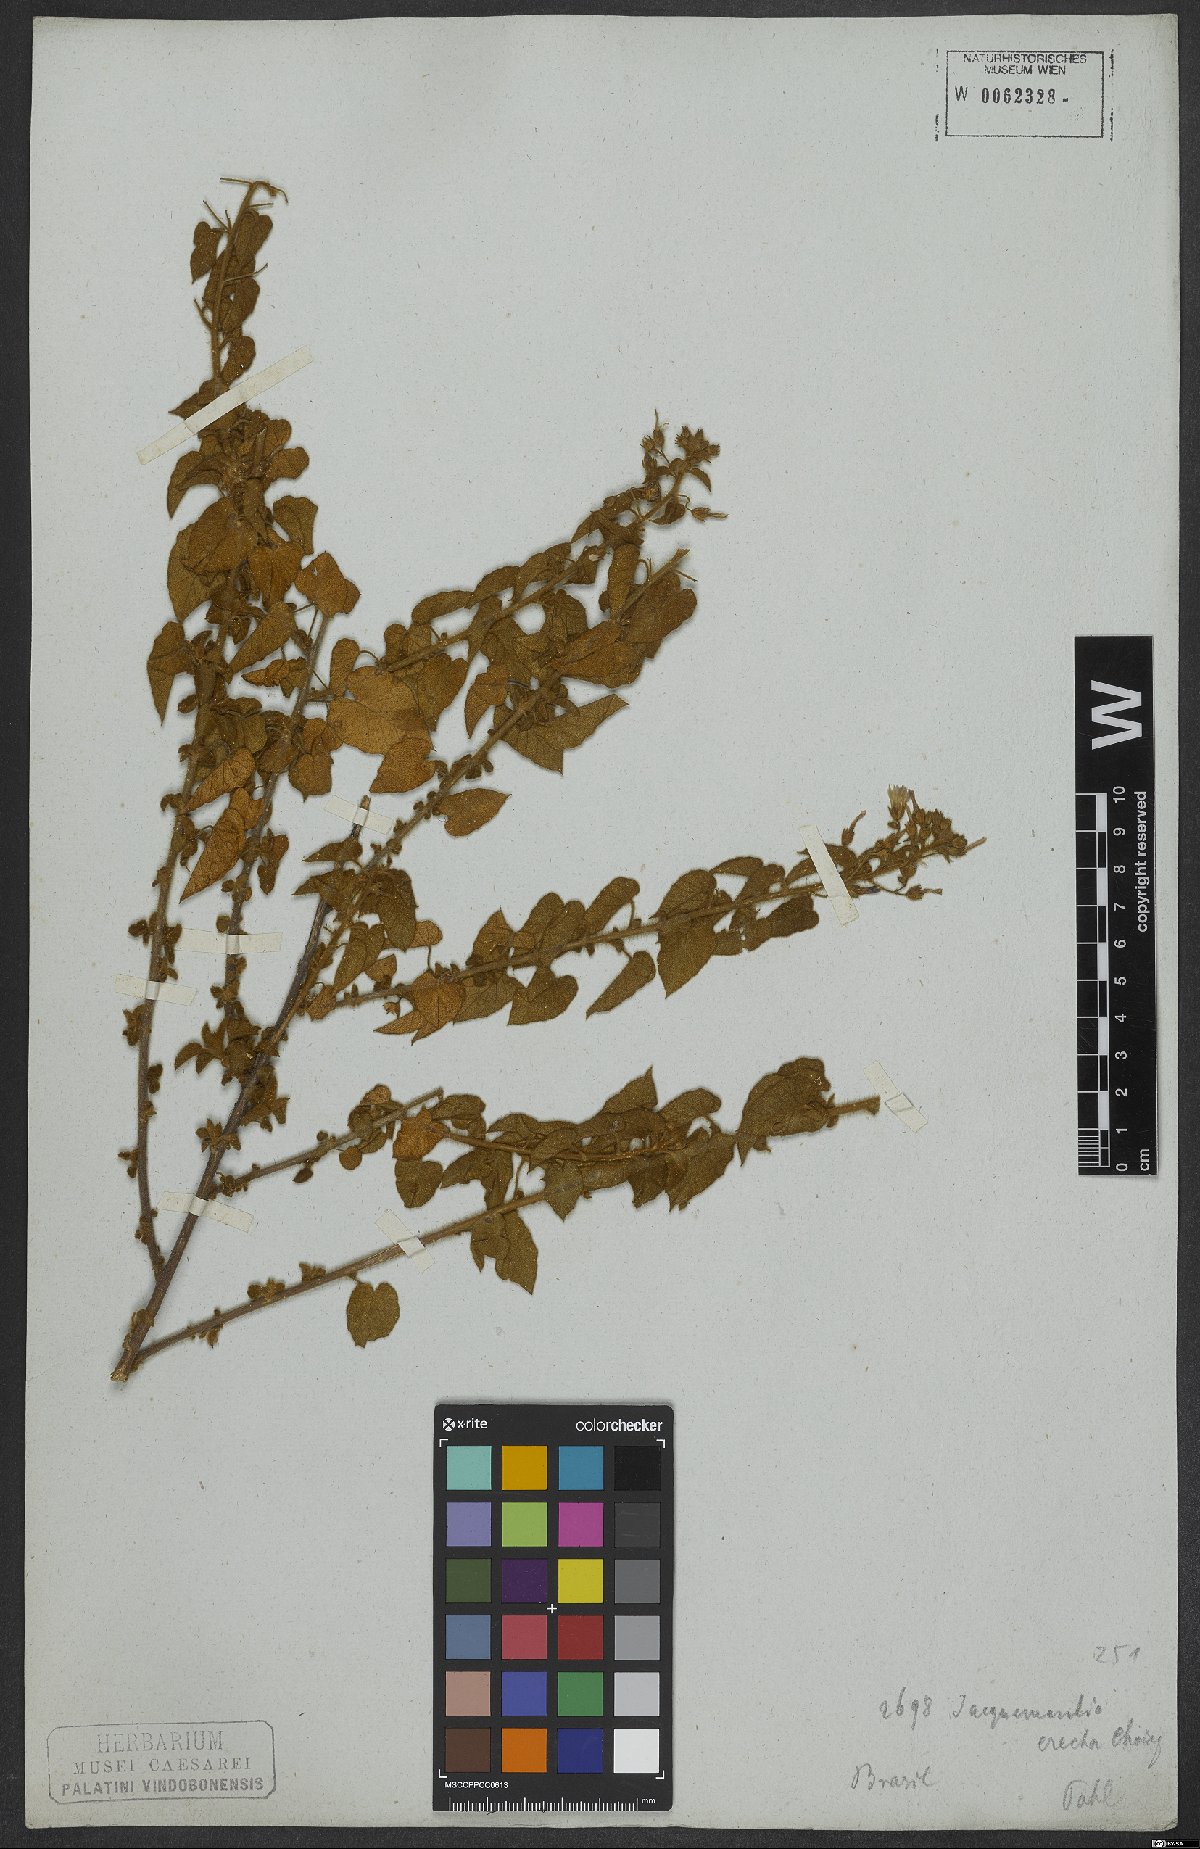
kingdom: Plantae
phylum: Tracheophyta
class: Magnoliopsida
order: Solanales
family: Convolvulaceae
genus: Jacquemontia
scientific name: Jacquemontia evolvuloides
